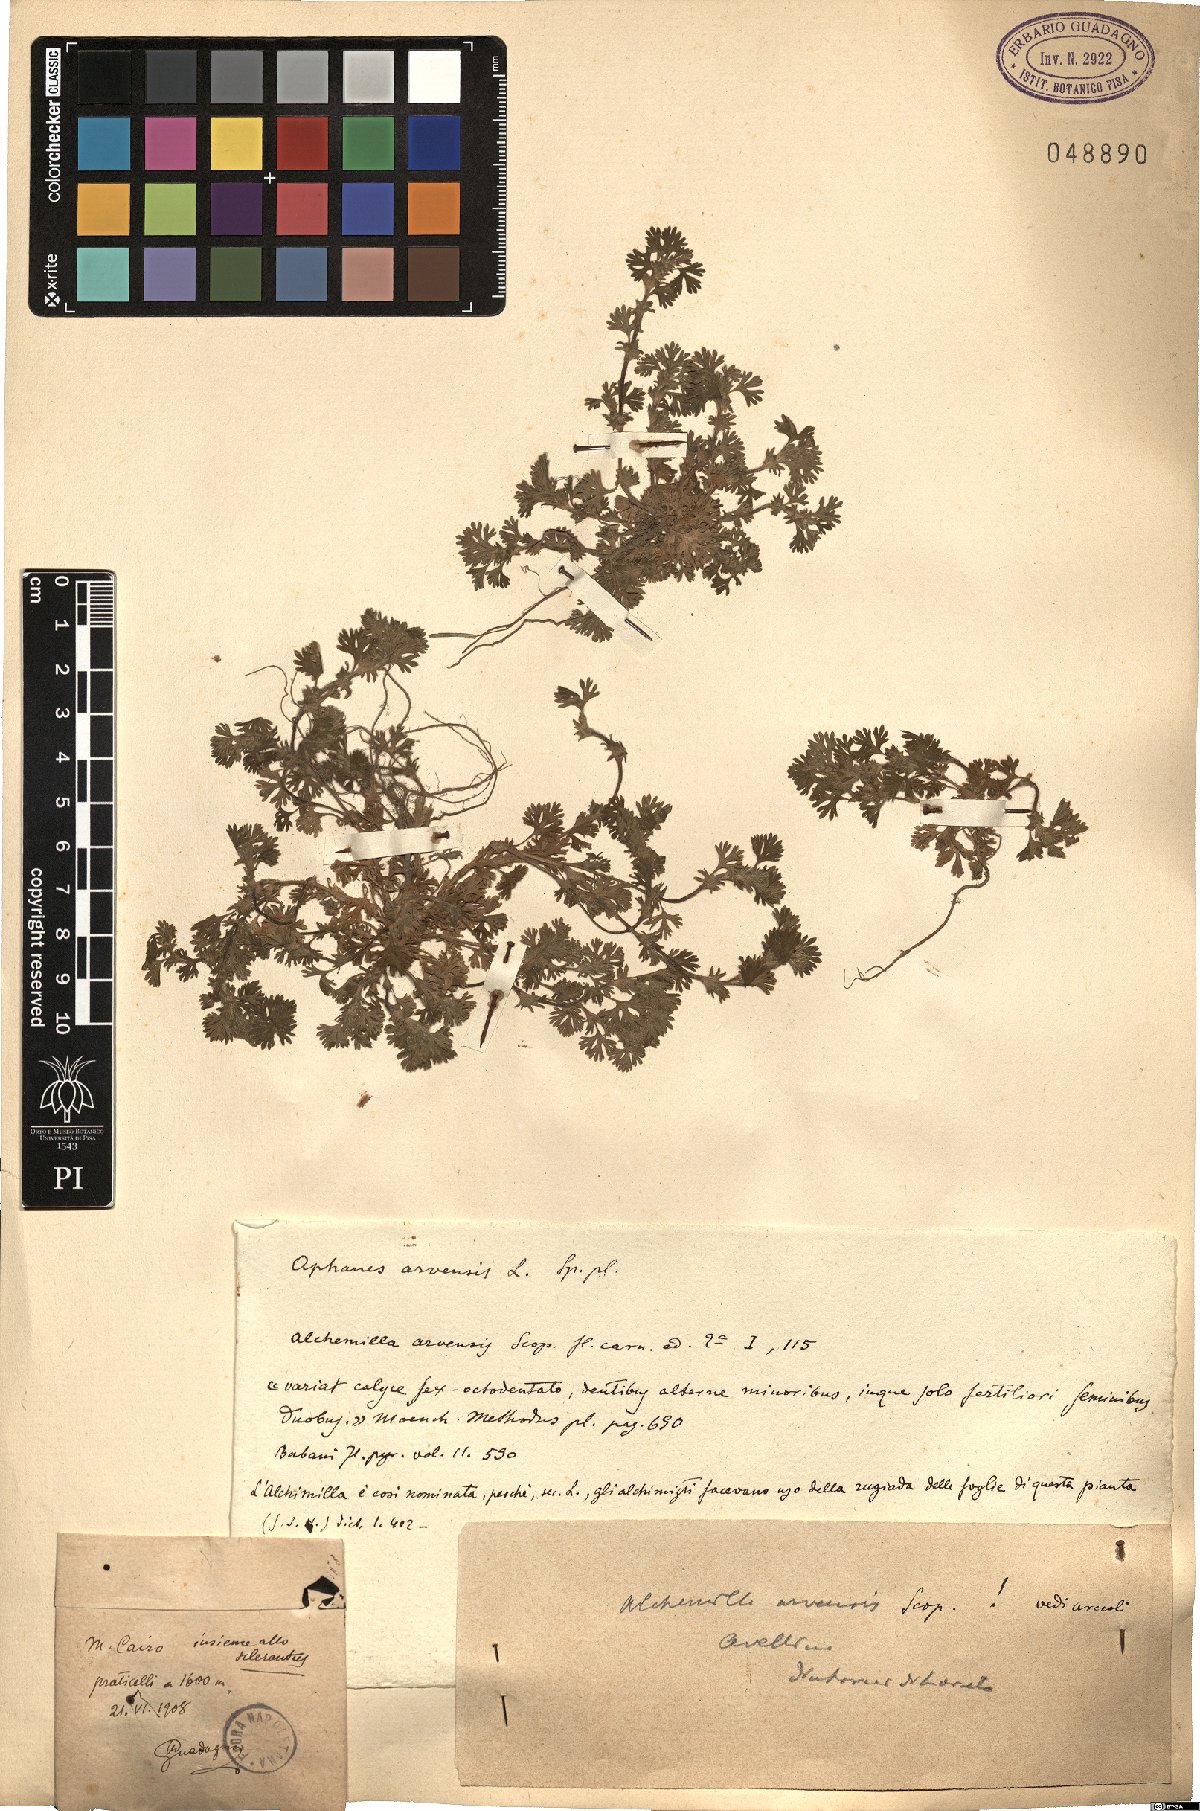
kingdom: Plantae
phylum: Tracheophyta
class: Magnoliopsida
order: Rosales
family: Rosaceae
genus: Aphanes
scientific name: Aphanes arvensis
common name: Parsley-piert
